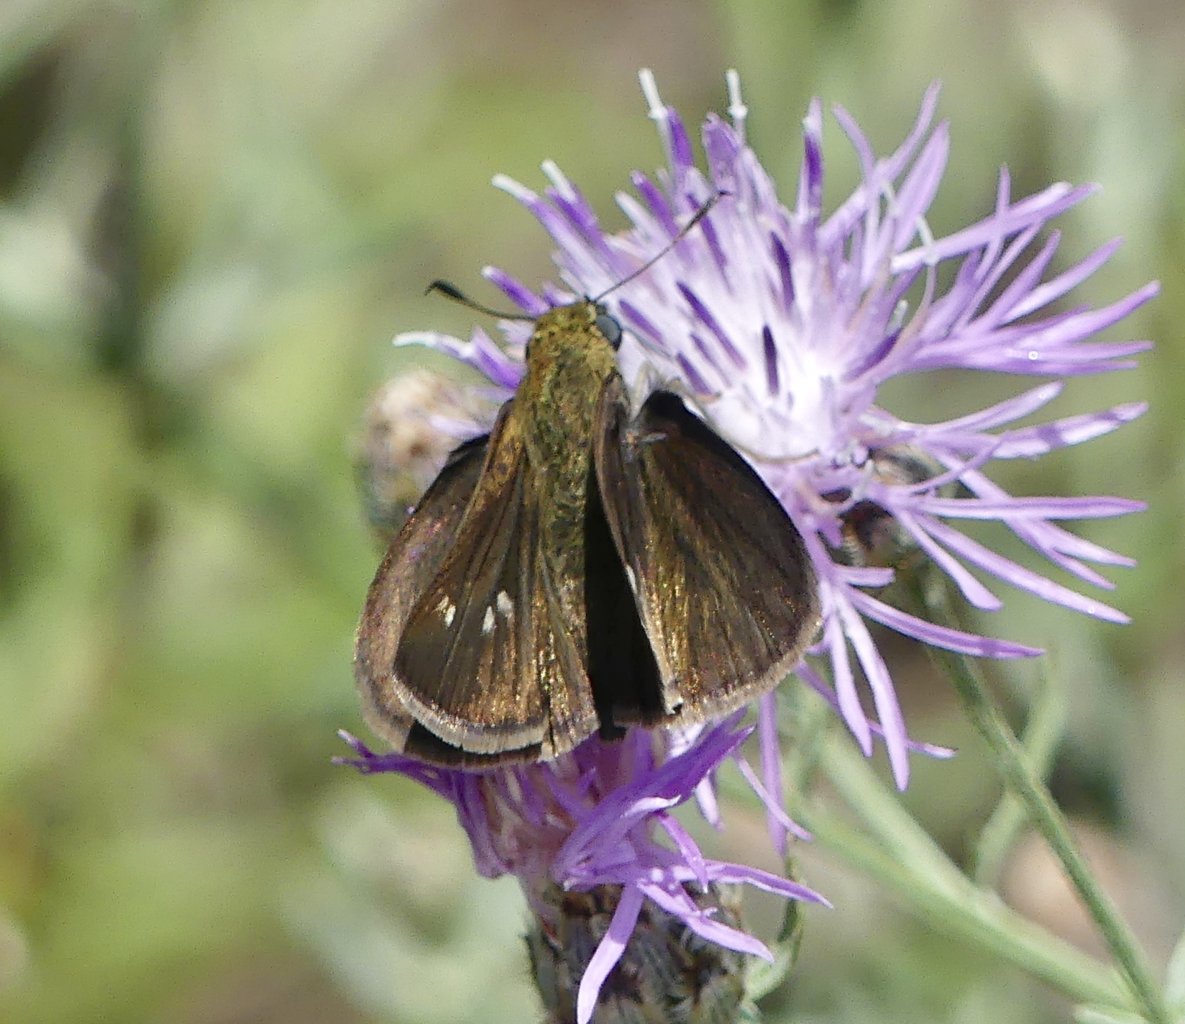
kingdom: Animalia
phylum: Arthropoda
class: Insecta
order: Lepidoptera
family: Hesperiidae
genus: Euphyes
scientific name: Euphyes vestris
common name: Dun Skipper
